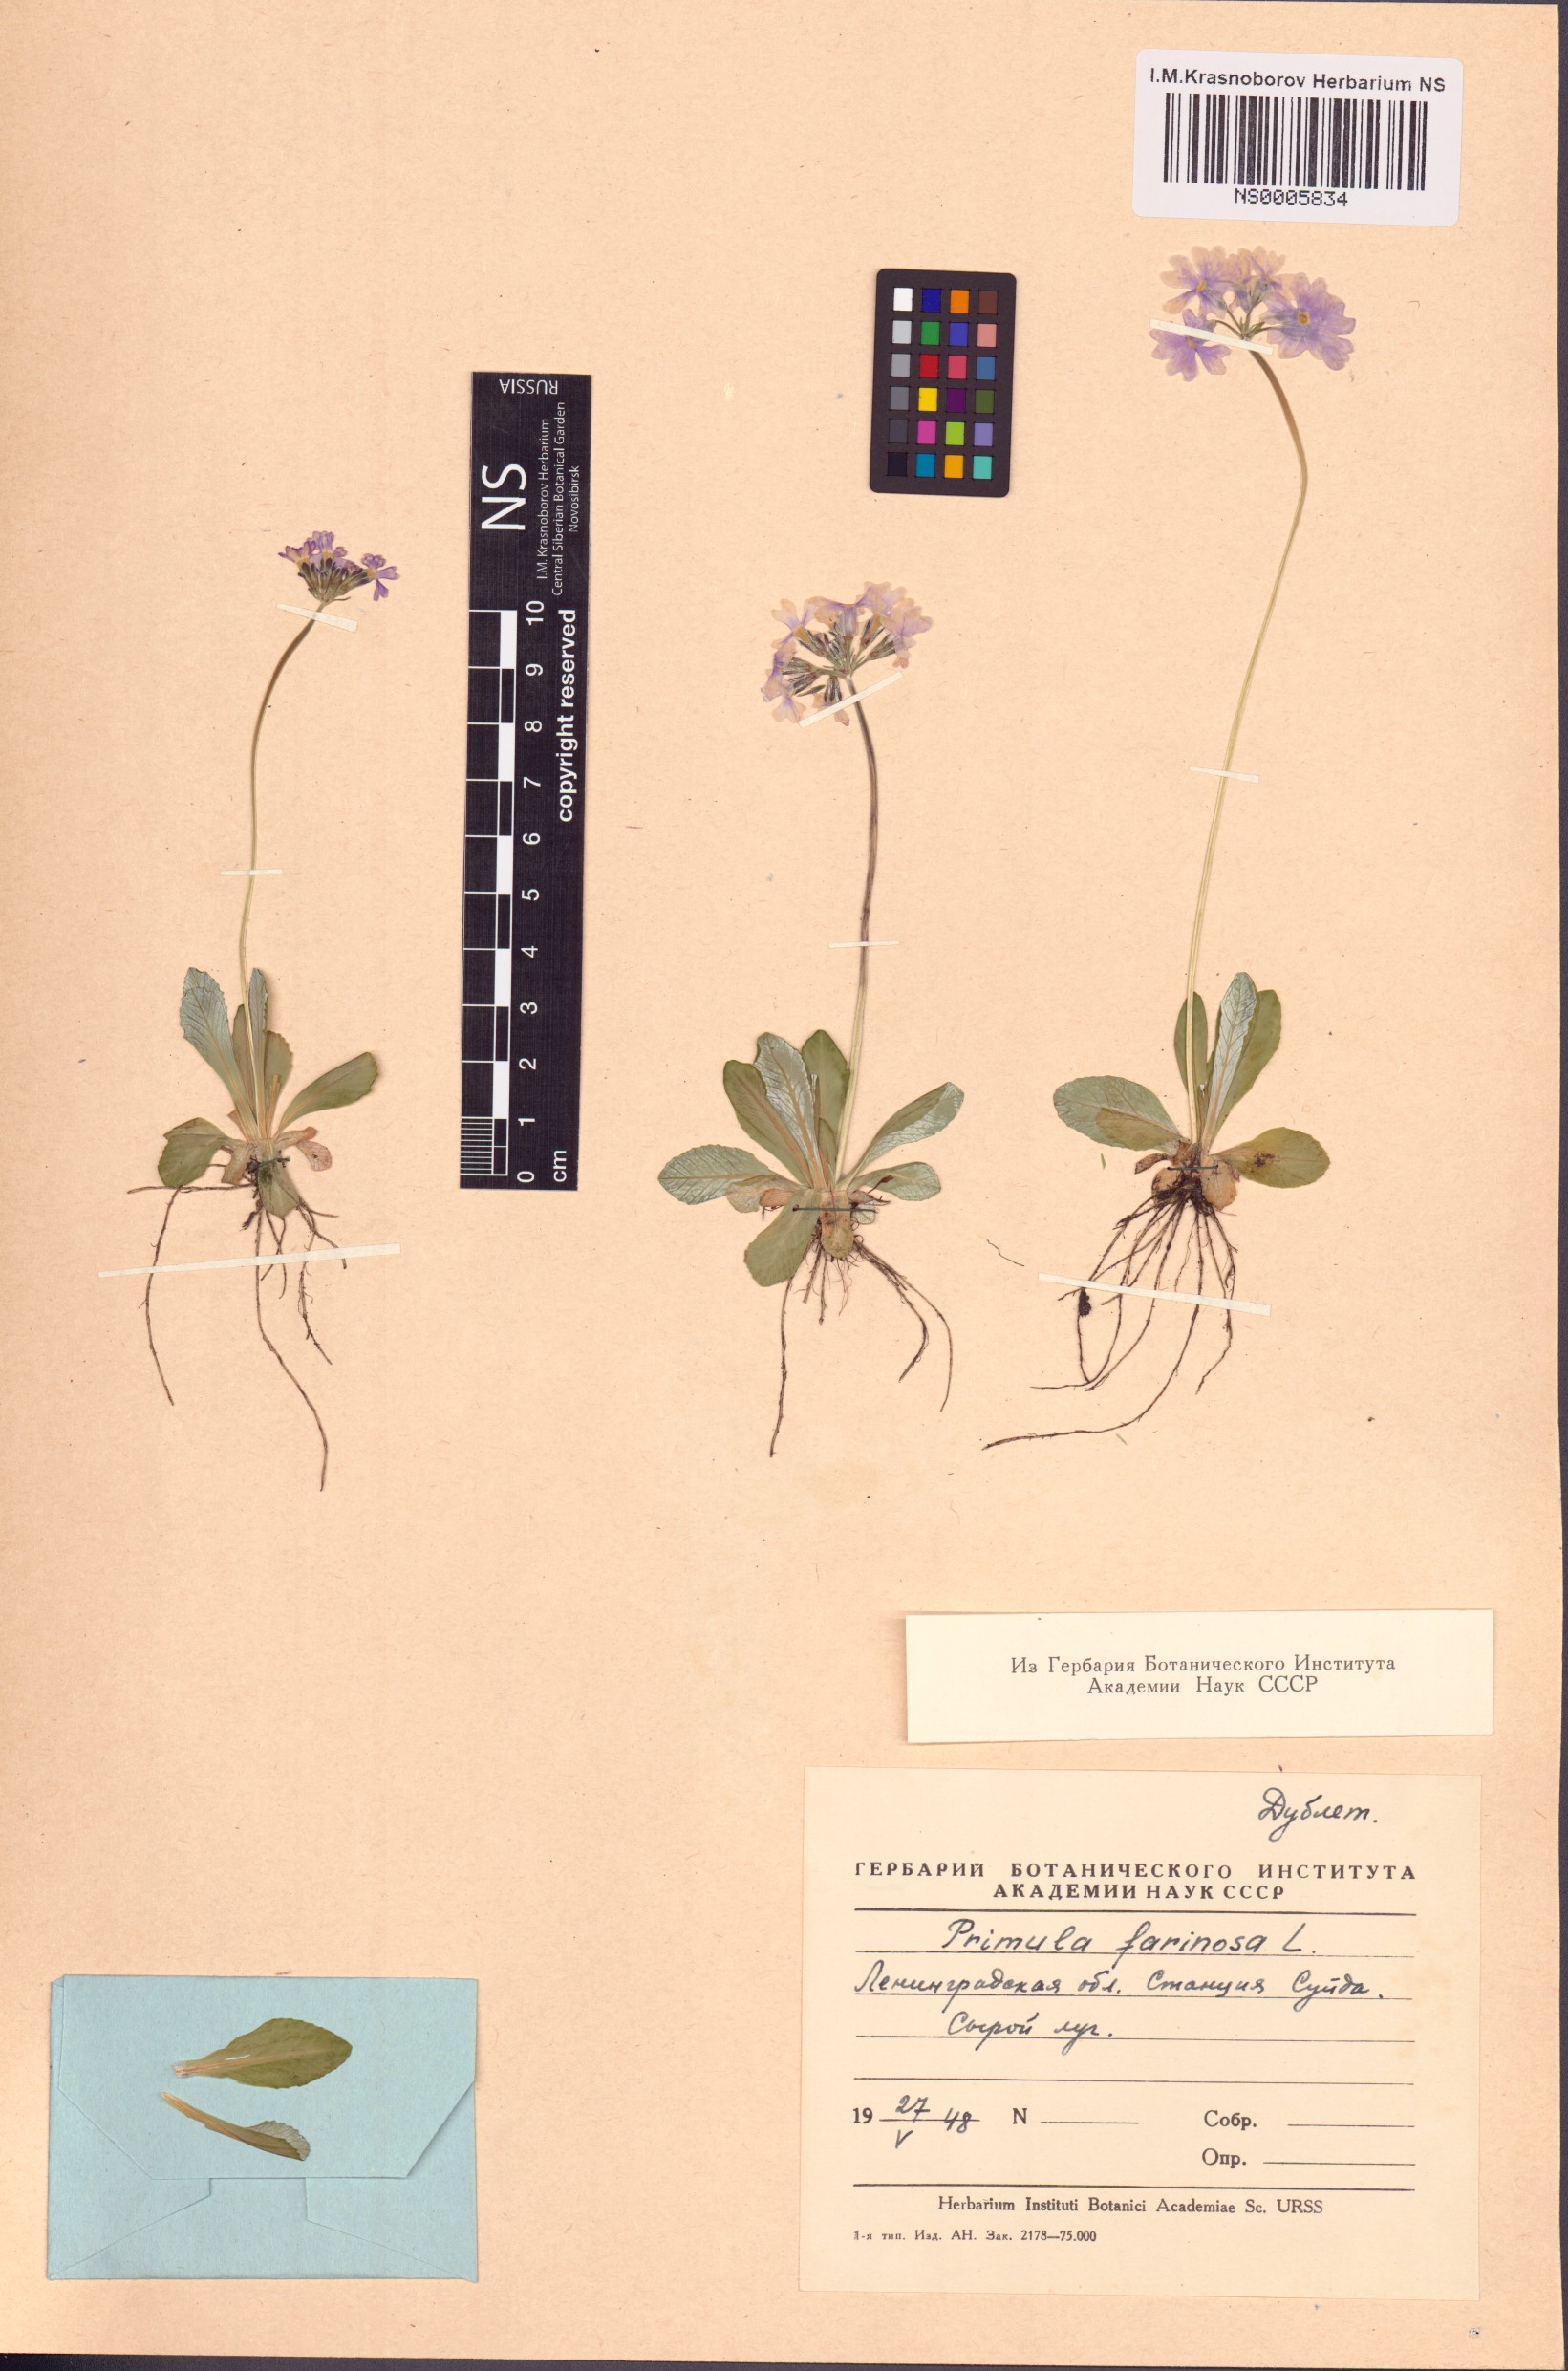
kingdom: Plantae
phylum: Tracheophyta
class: Magnoliopsida
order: Ericales
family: Primulaceae
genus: Primula
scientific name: Primula farinosa
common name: Bird's-eye primrose
